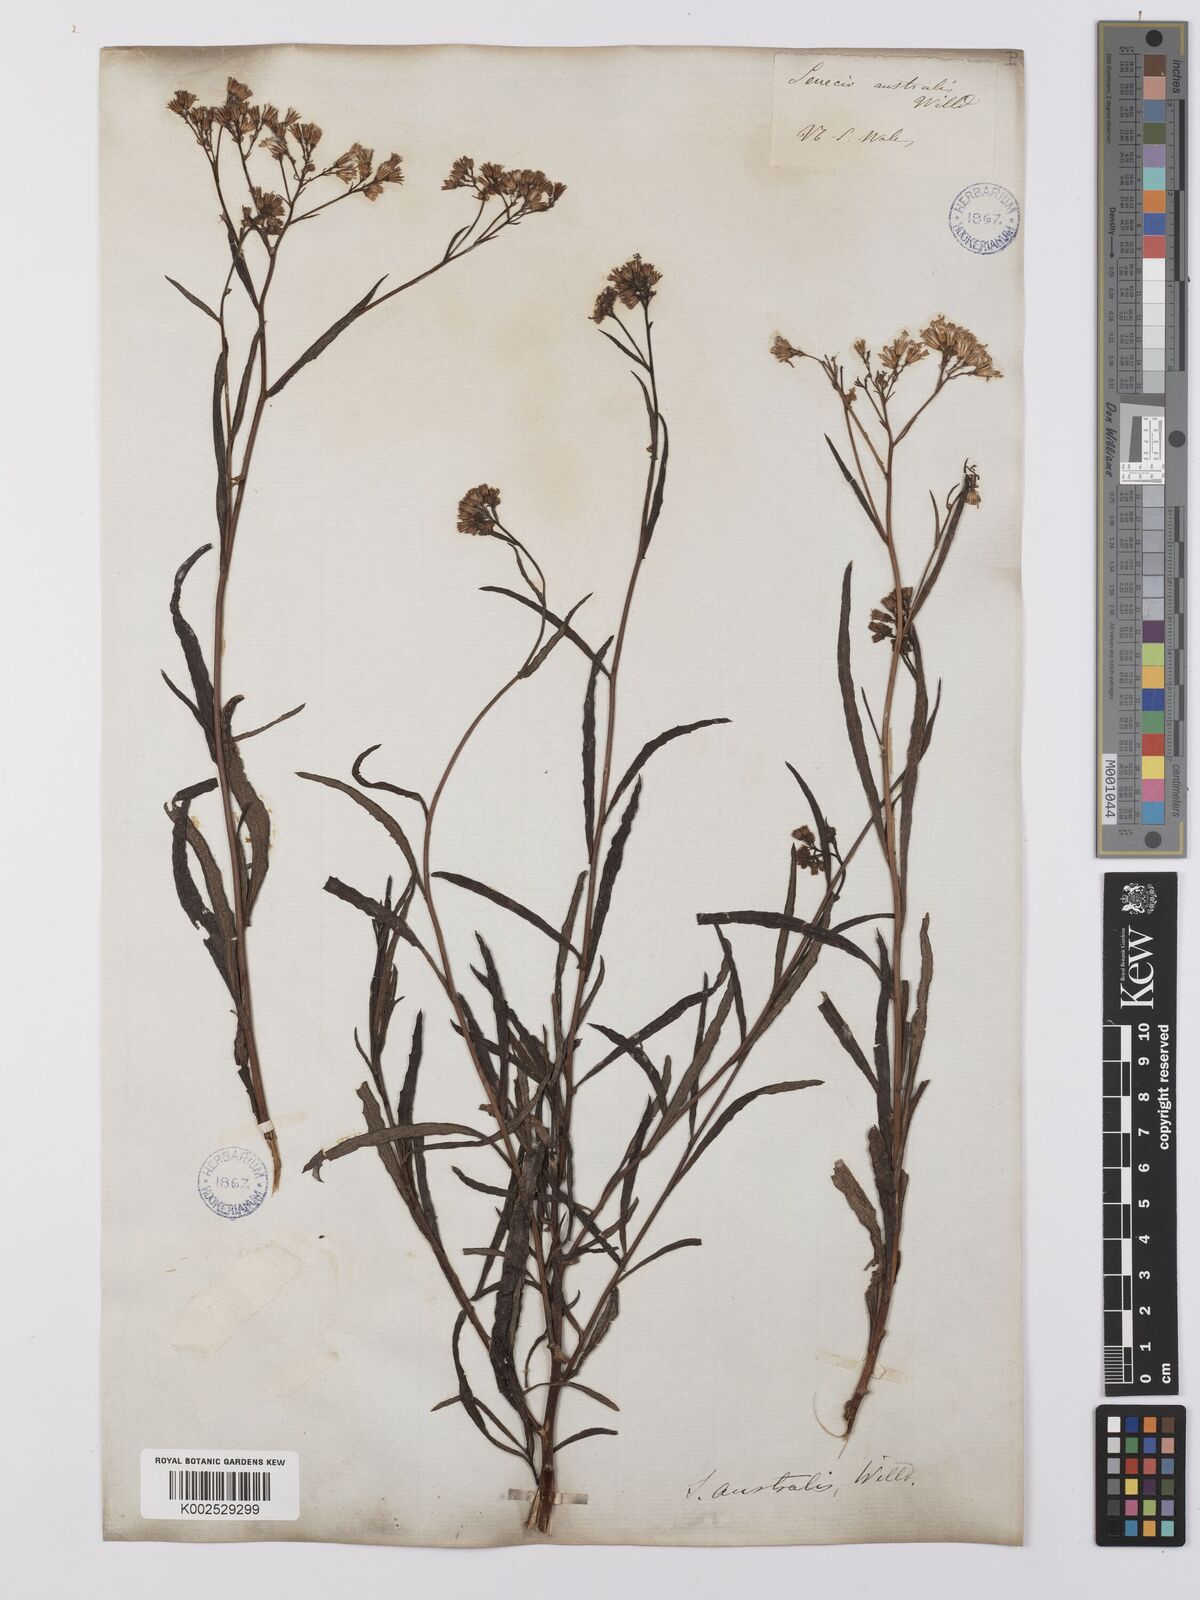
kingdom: Plantae
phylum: Tracheophyta
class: Magnoliopsida
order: Asterales
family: Asteraceae
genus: Senecio
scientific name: Senecio
